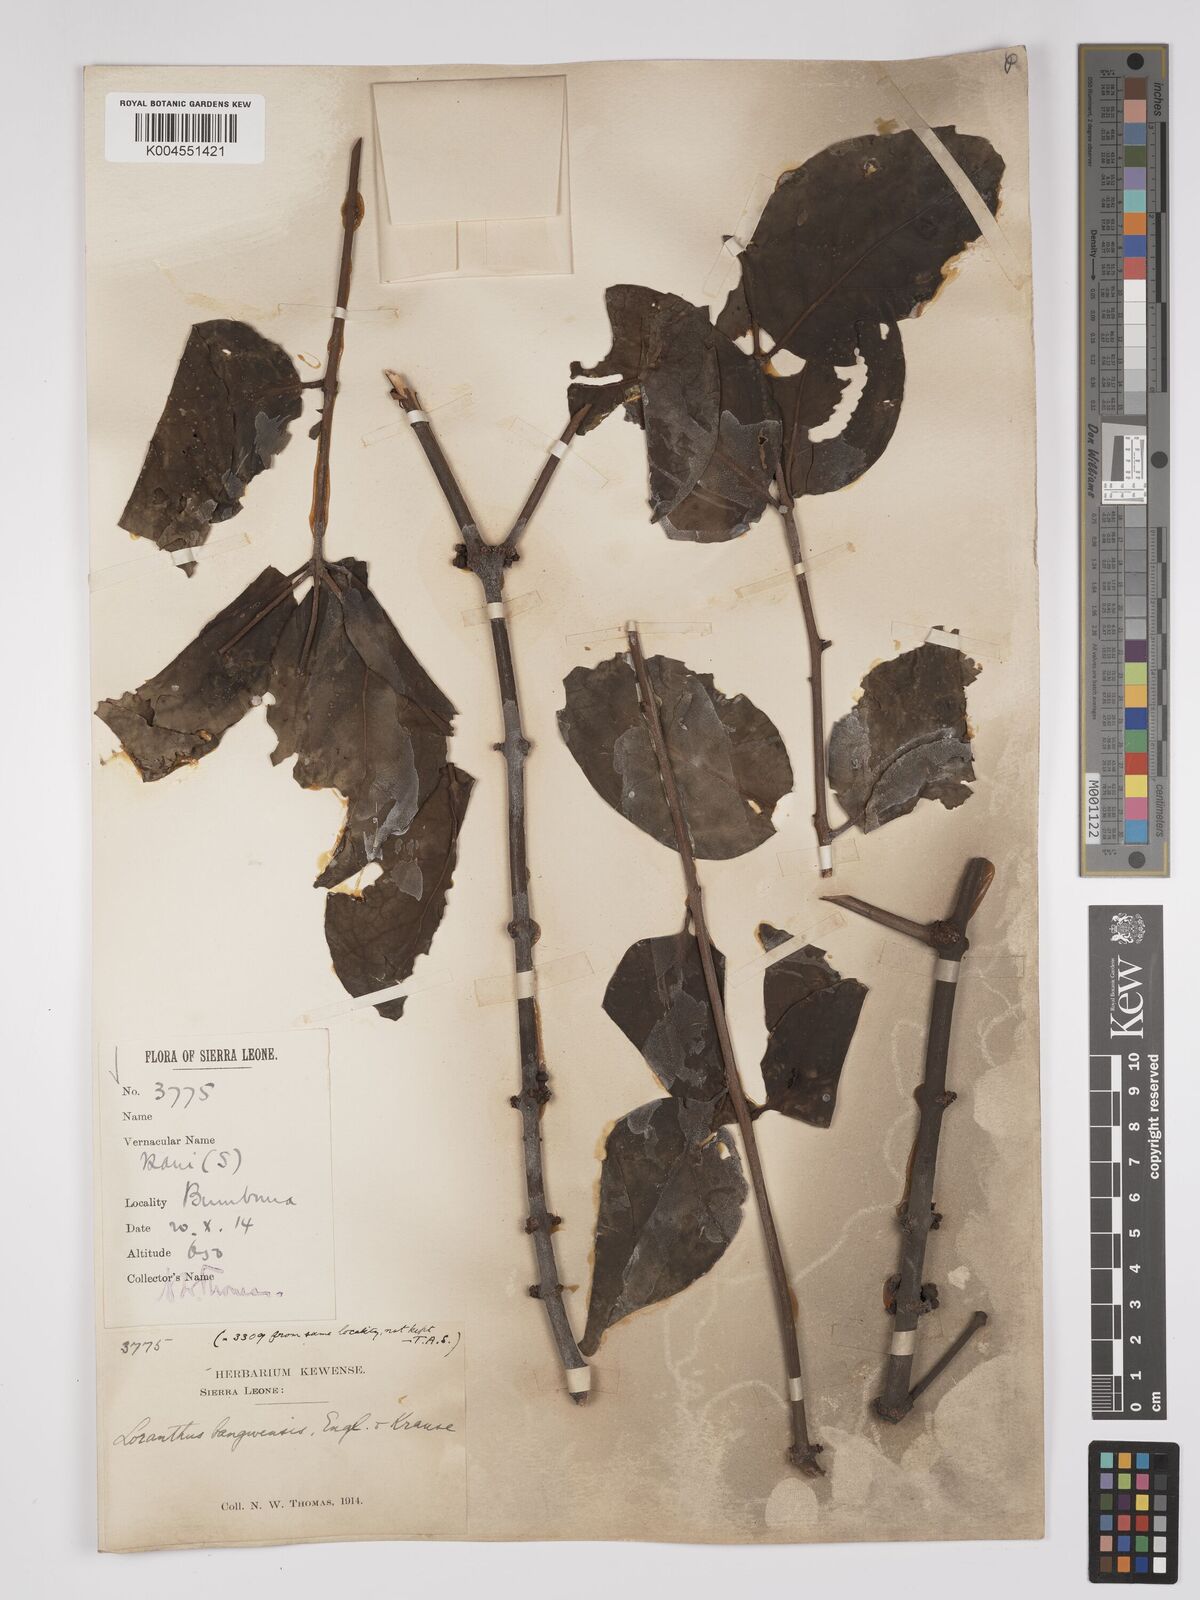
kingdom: Plantae
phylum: Tracheophyta
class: Magnoliopsida
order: Santalales
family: Loranthaceae
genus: Tapinanthus
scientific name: Tapinanthus bangwensis
